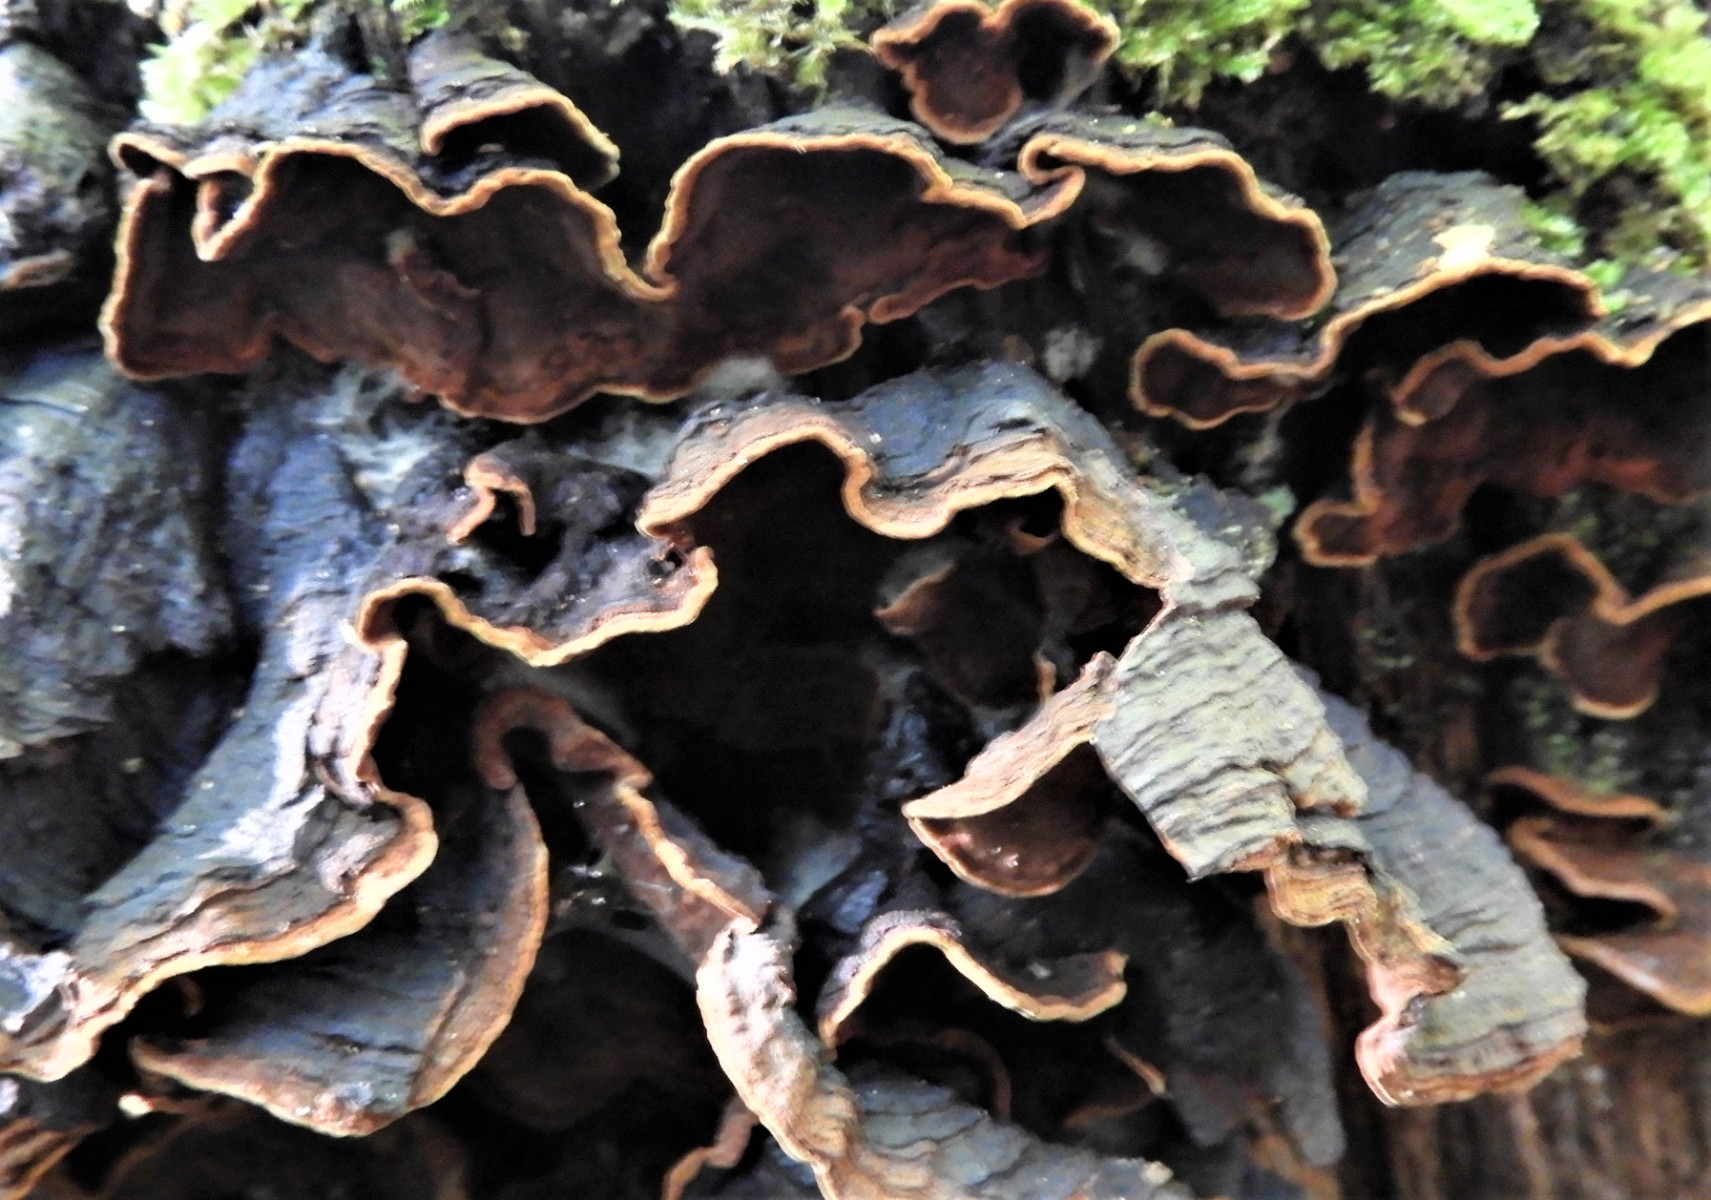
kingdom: Fungi
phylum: Basidiomycota
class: Agaricomycetes
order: Hymenochaetales
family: Hymenochaetaceae
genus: Hymenochaete
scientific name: Hymenochaete rubiginosa
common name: stiv ruslædersvamp
